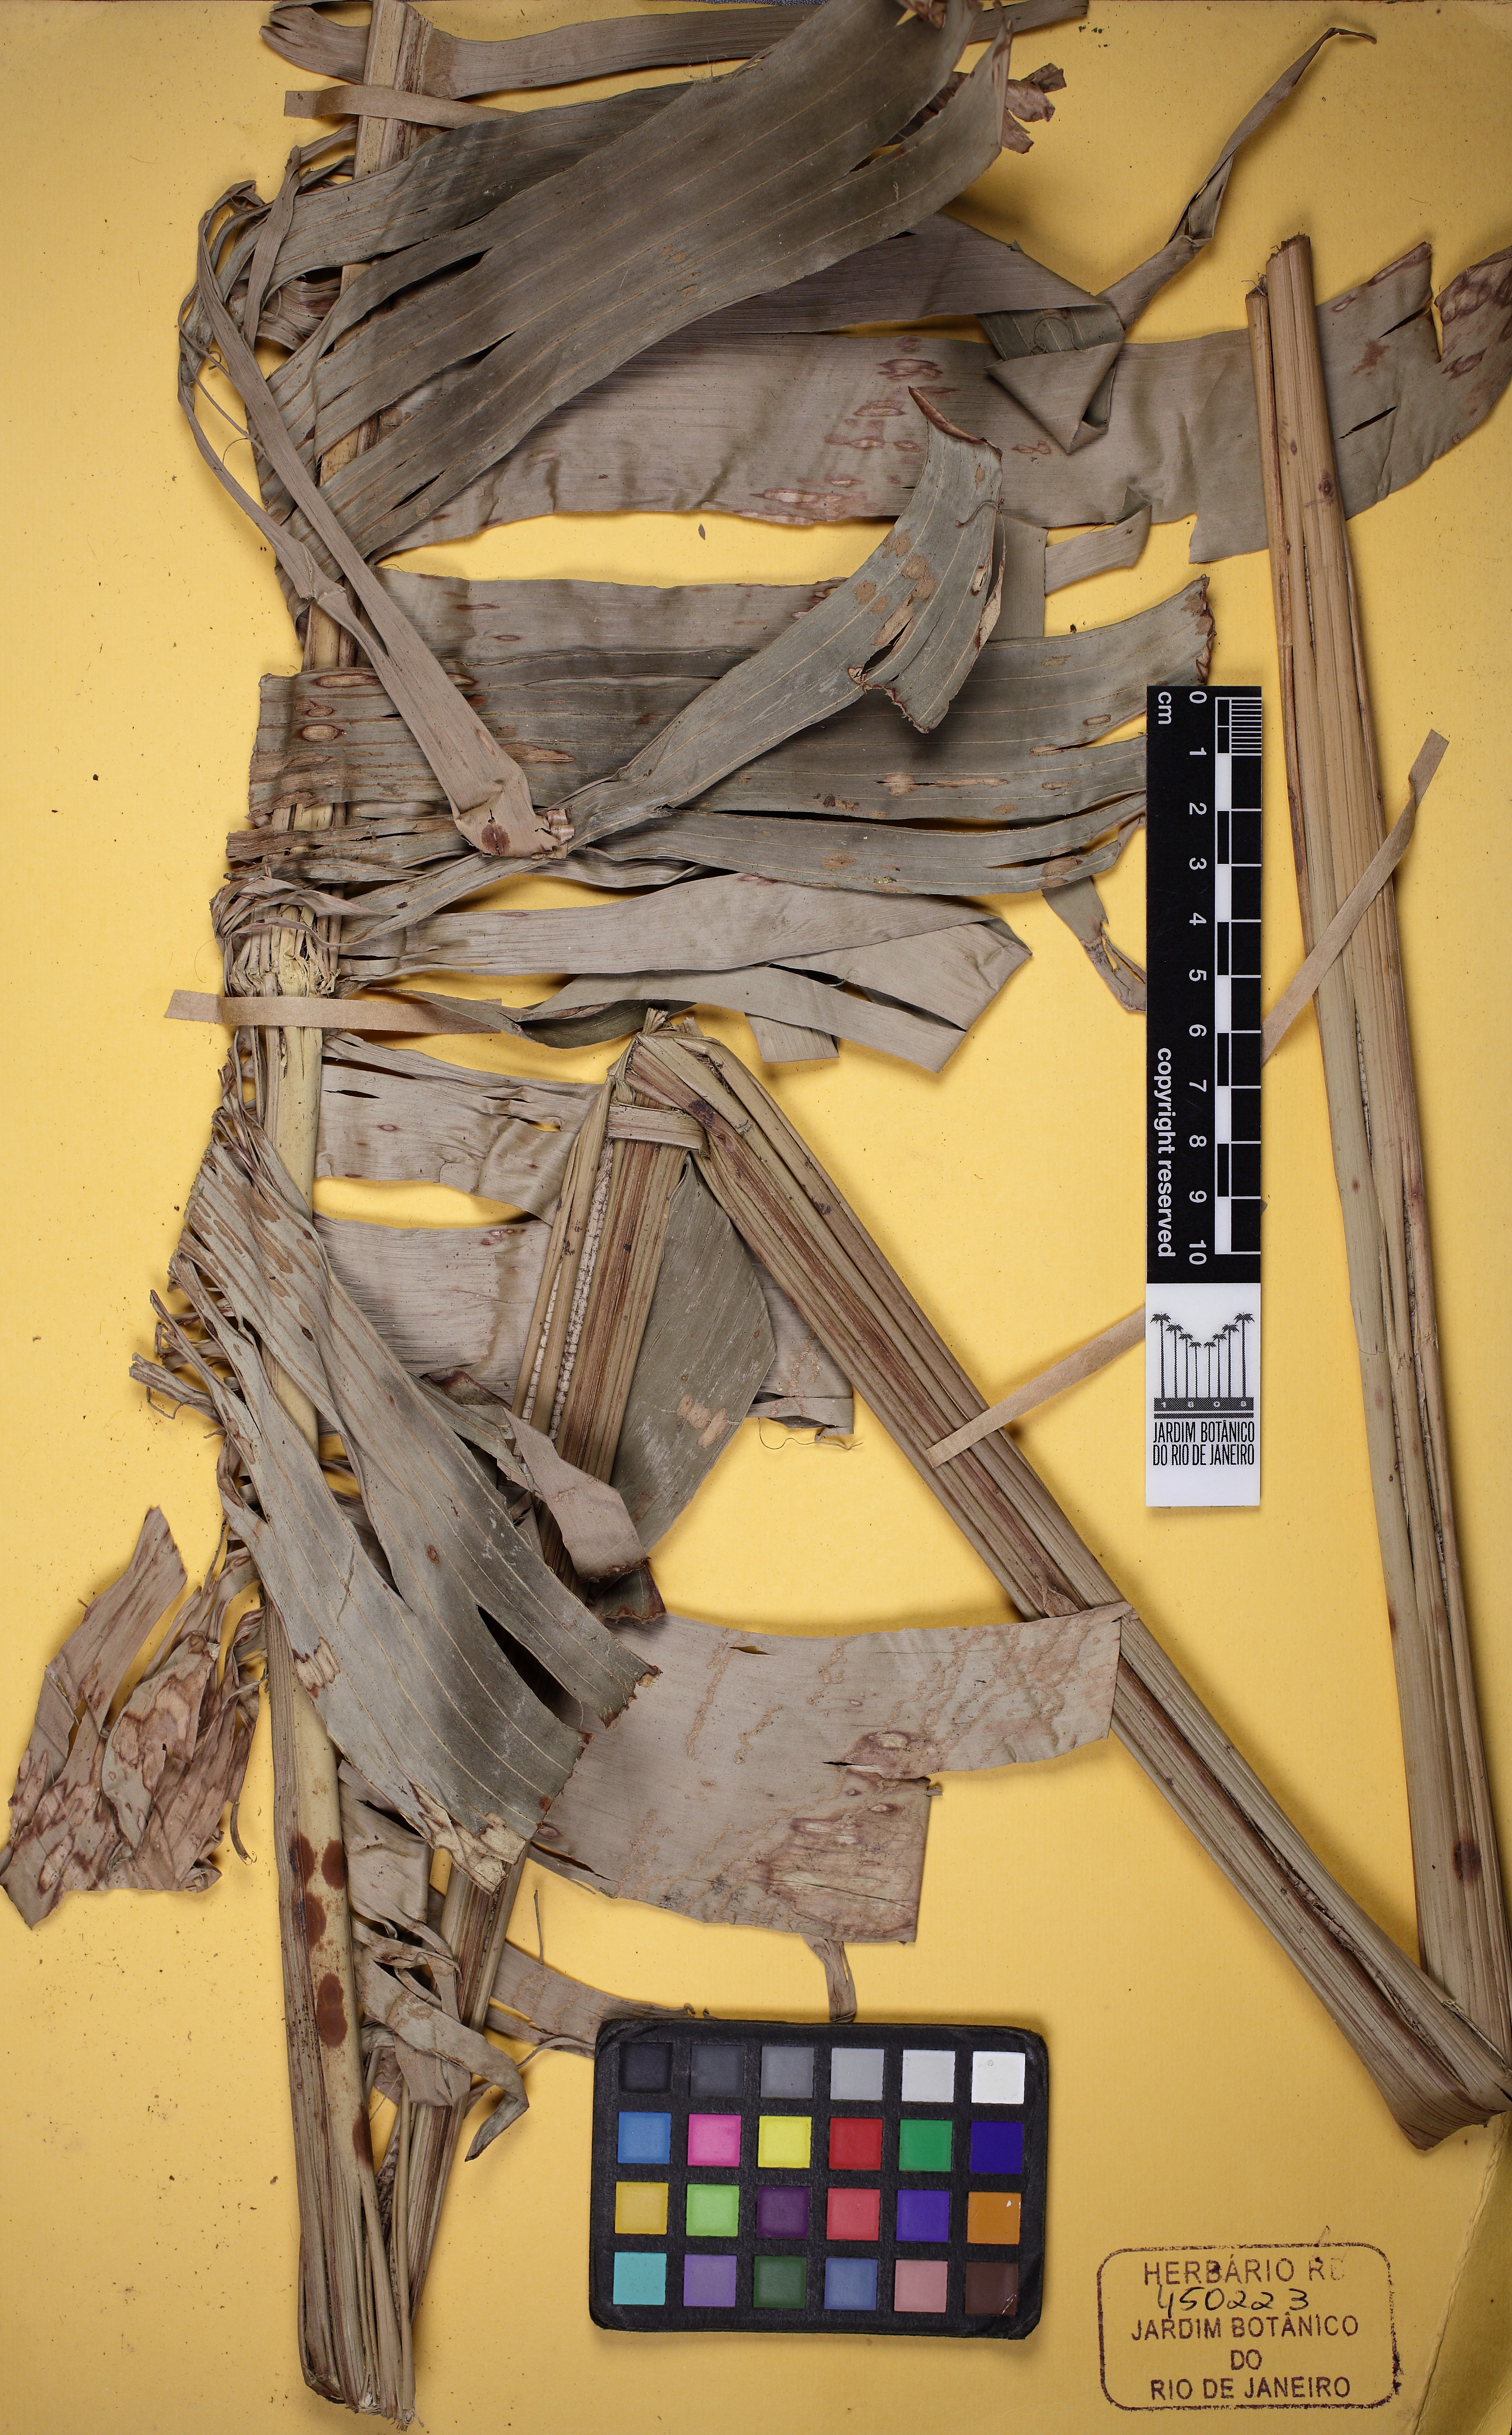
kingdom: Plantae
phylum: Tracheophyta
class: Liliopsida
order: Zingiberales
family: Heliconiaceae
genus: Heliconia
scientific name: Heliconia pogonantha
